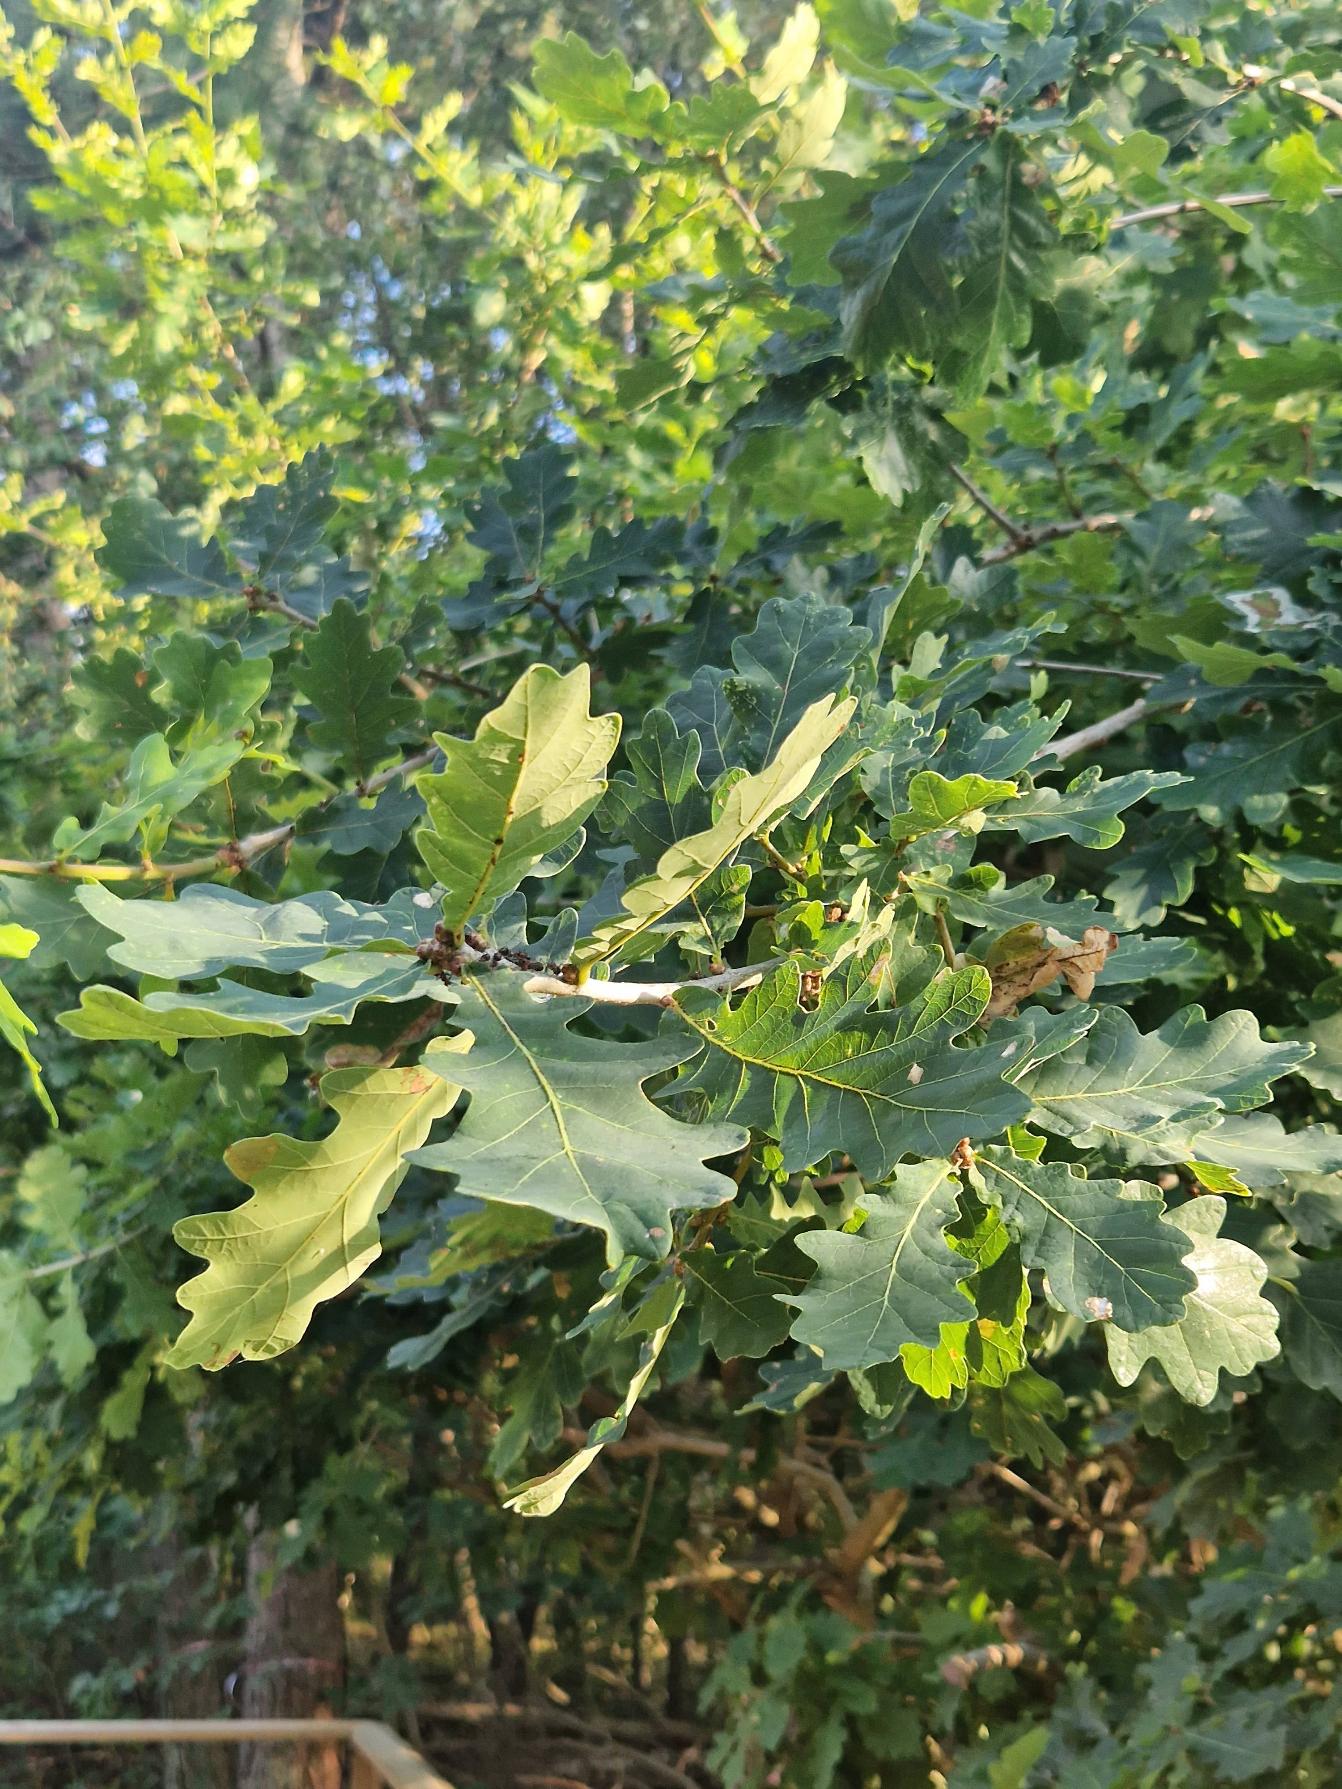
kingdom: Plantae
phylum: Tracheophyta
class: Magnoliopsida
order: Fagales
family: Fagaceae
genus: Quercus
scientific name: Quercus robur
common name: Stilk-eg/almindelig eg
